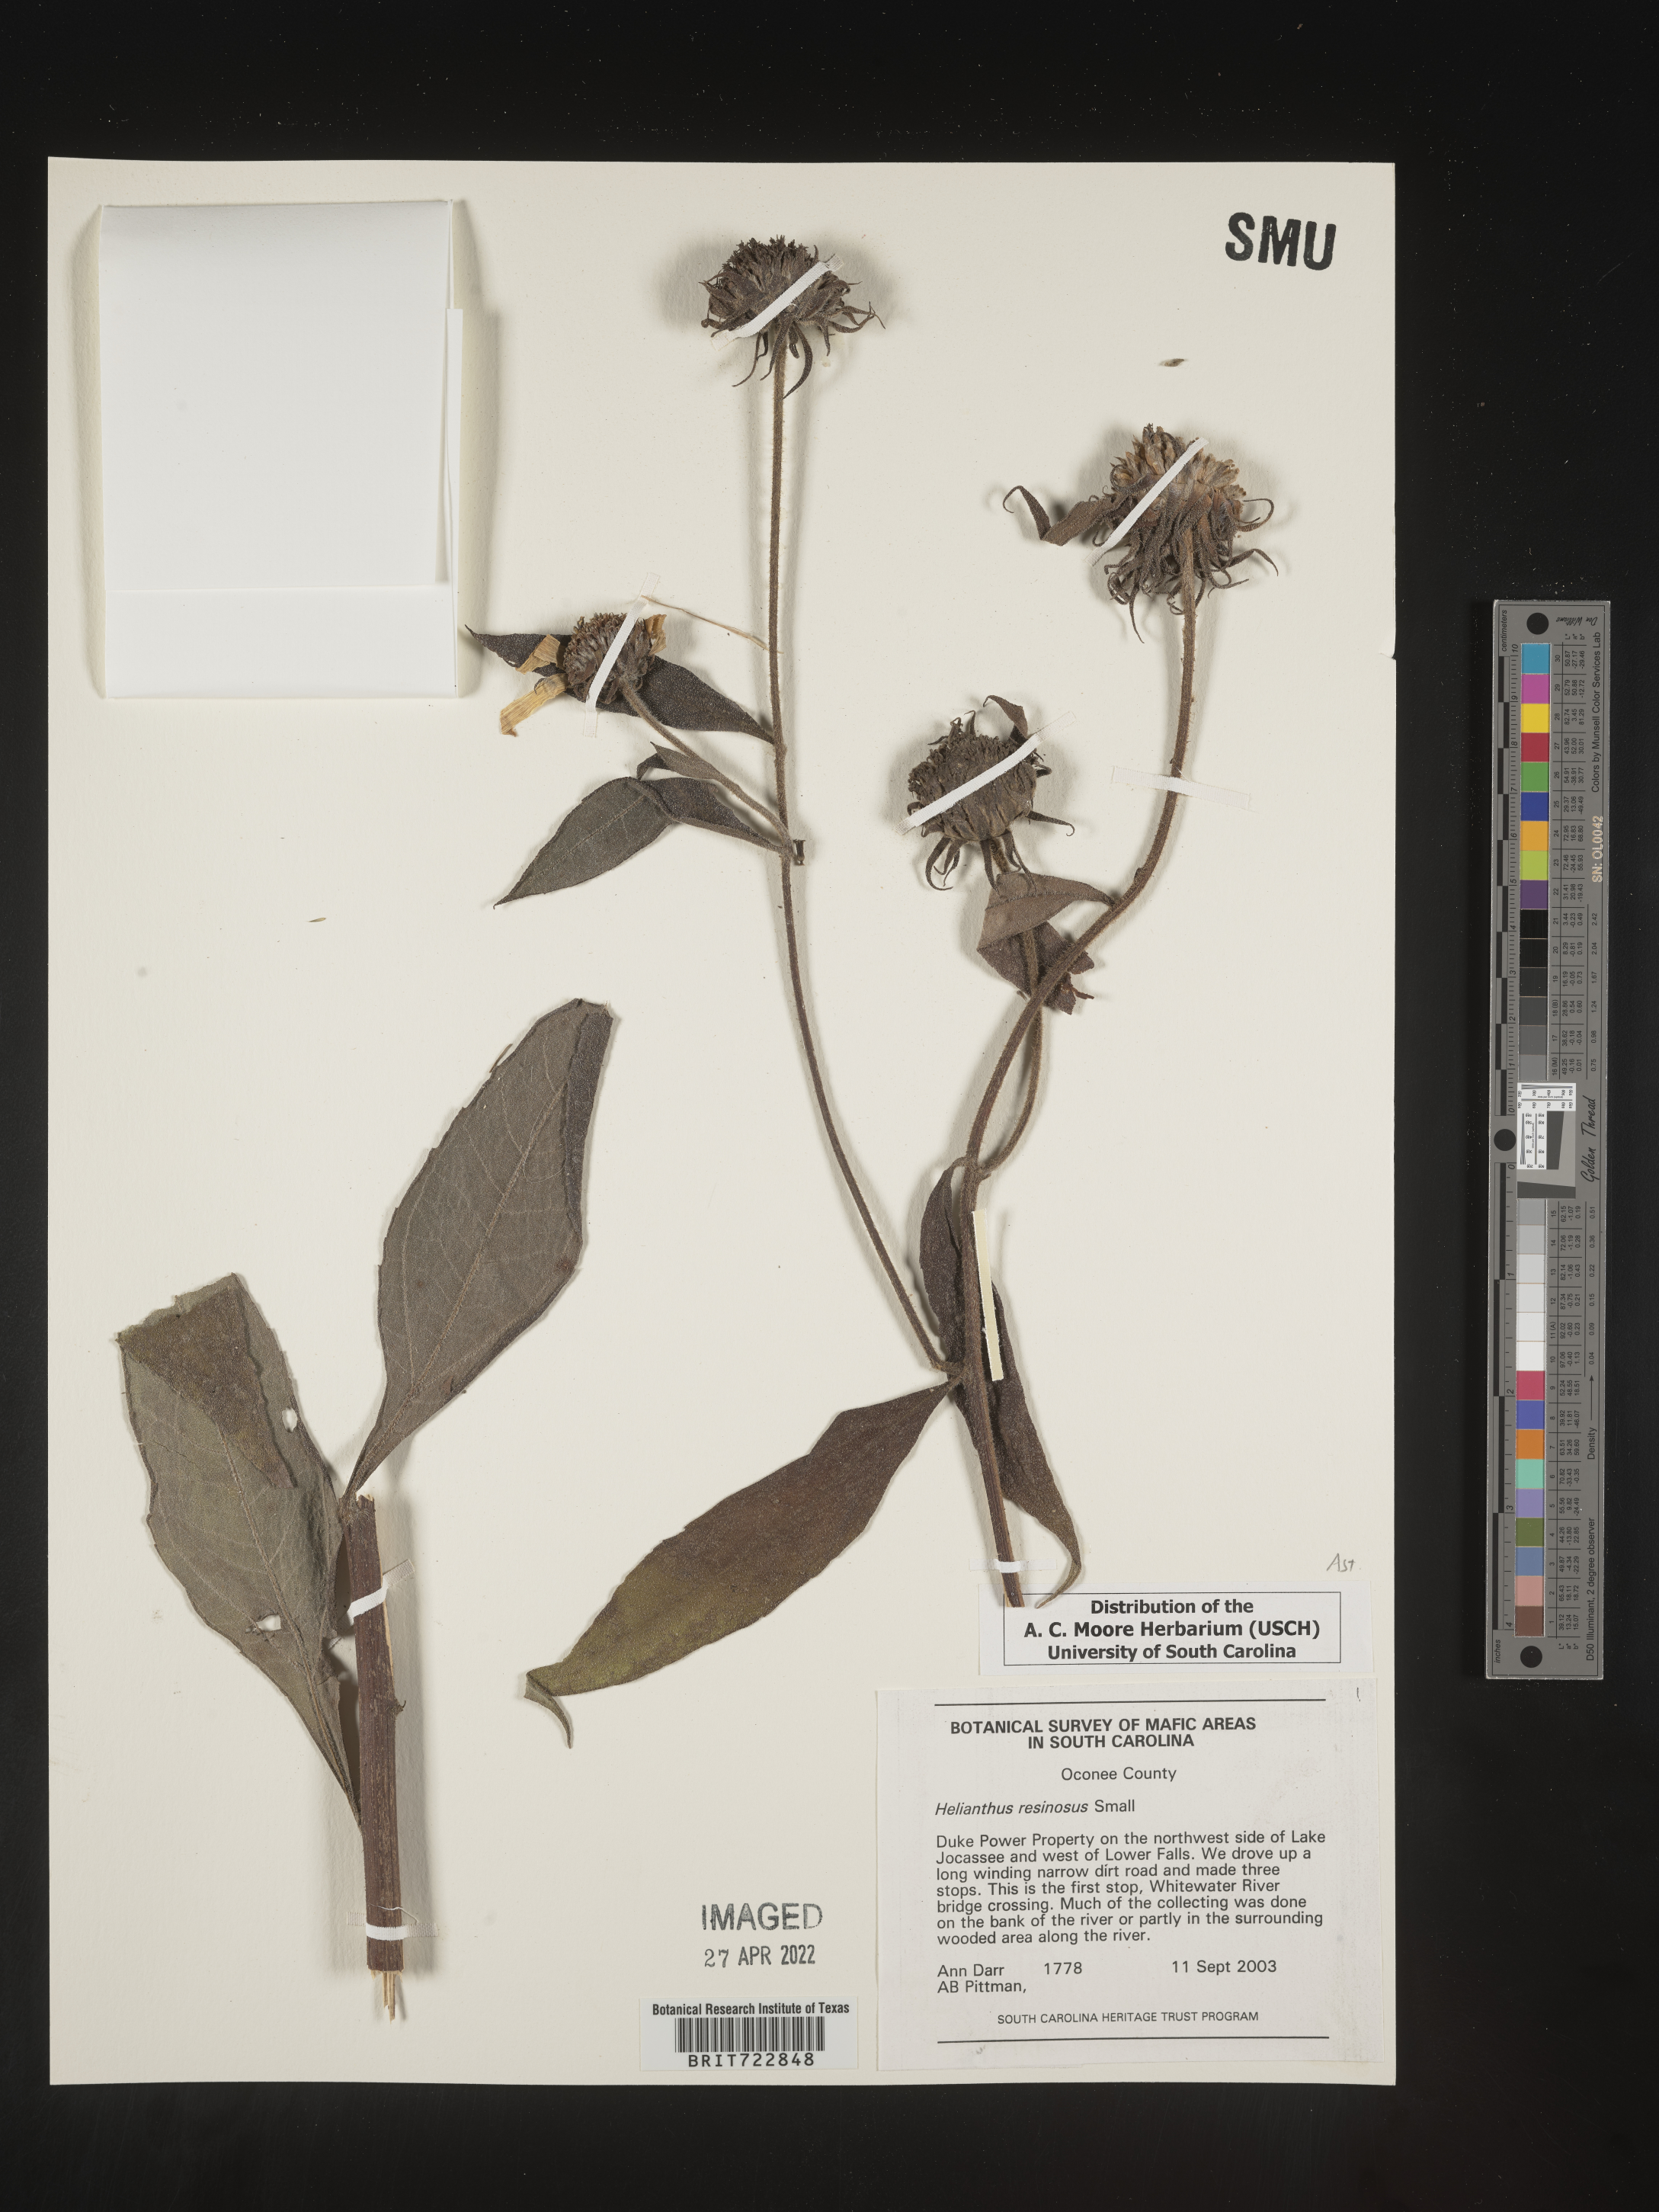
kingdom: Plantae
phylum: Tracheophyta
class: Magnoliopsida
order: Asterales
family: Asteraceae
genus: Helianthus
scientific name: Helianthus resinosus
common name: Resin-dot sunflower
